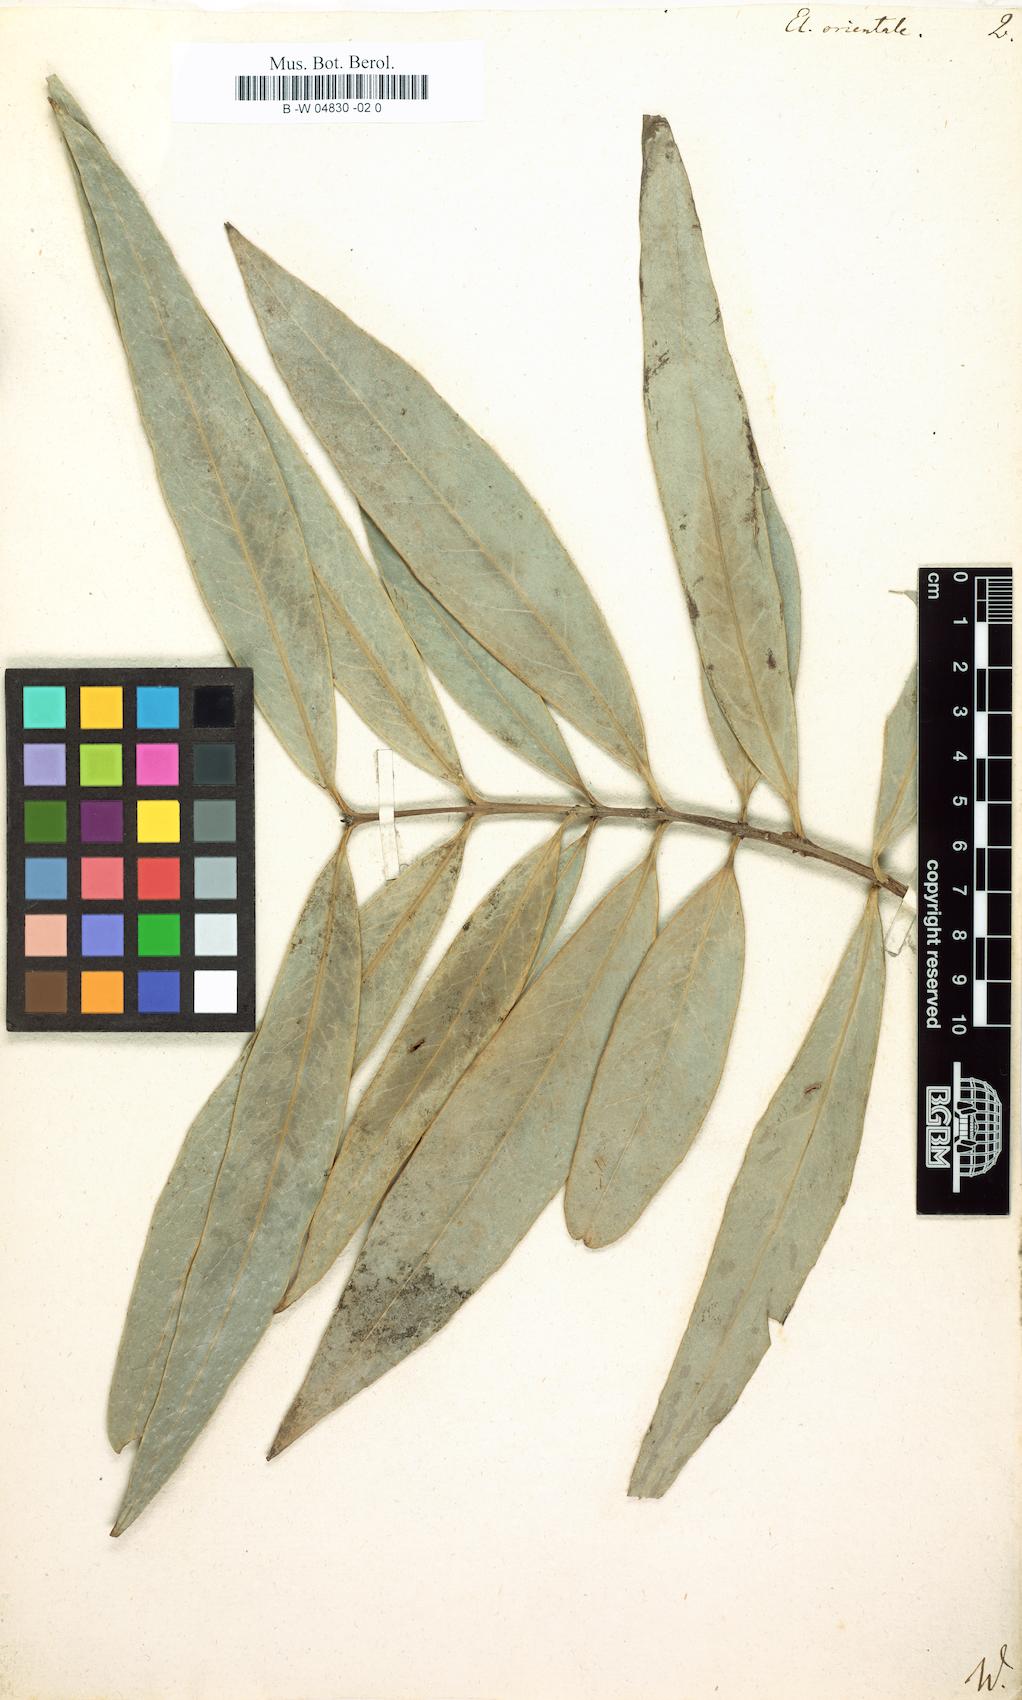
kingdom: Plantae
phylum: Tracheophyta
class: Magnoliopsida
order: Celastrales
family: Celastraceae
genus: Elaeodendron
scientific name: Elaeodendron orientale
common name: False olive
